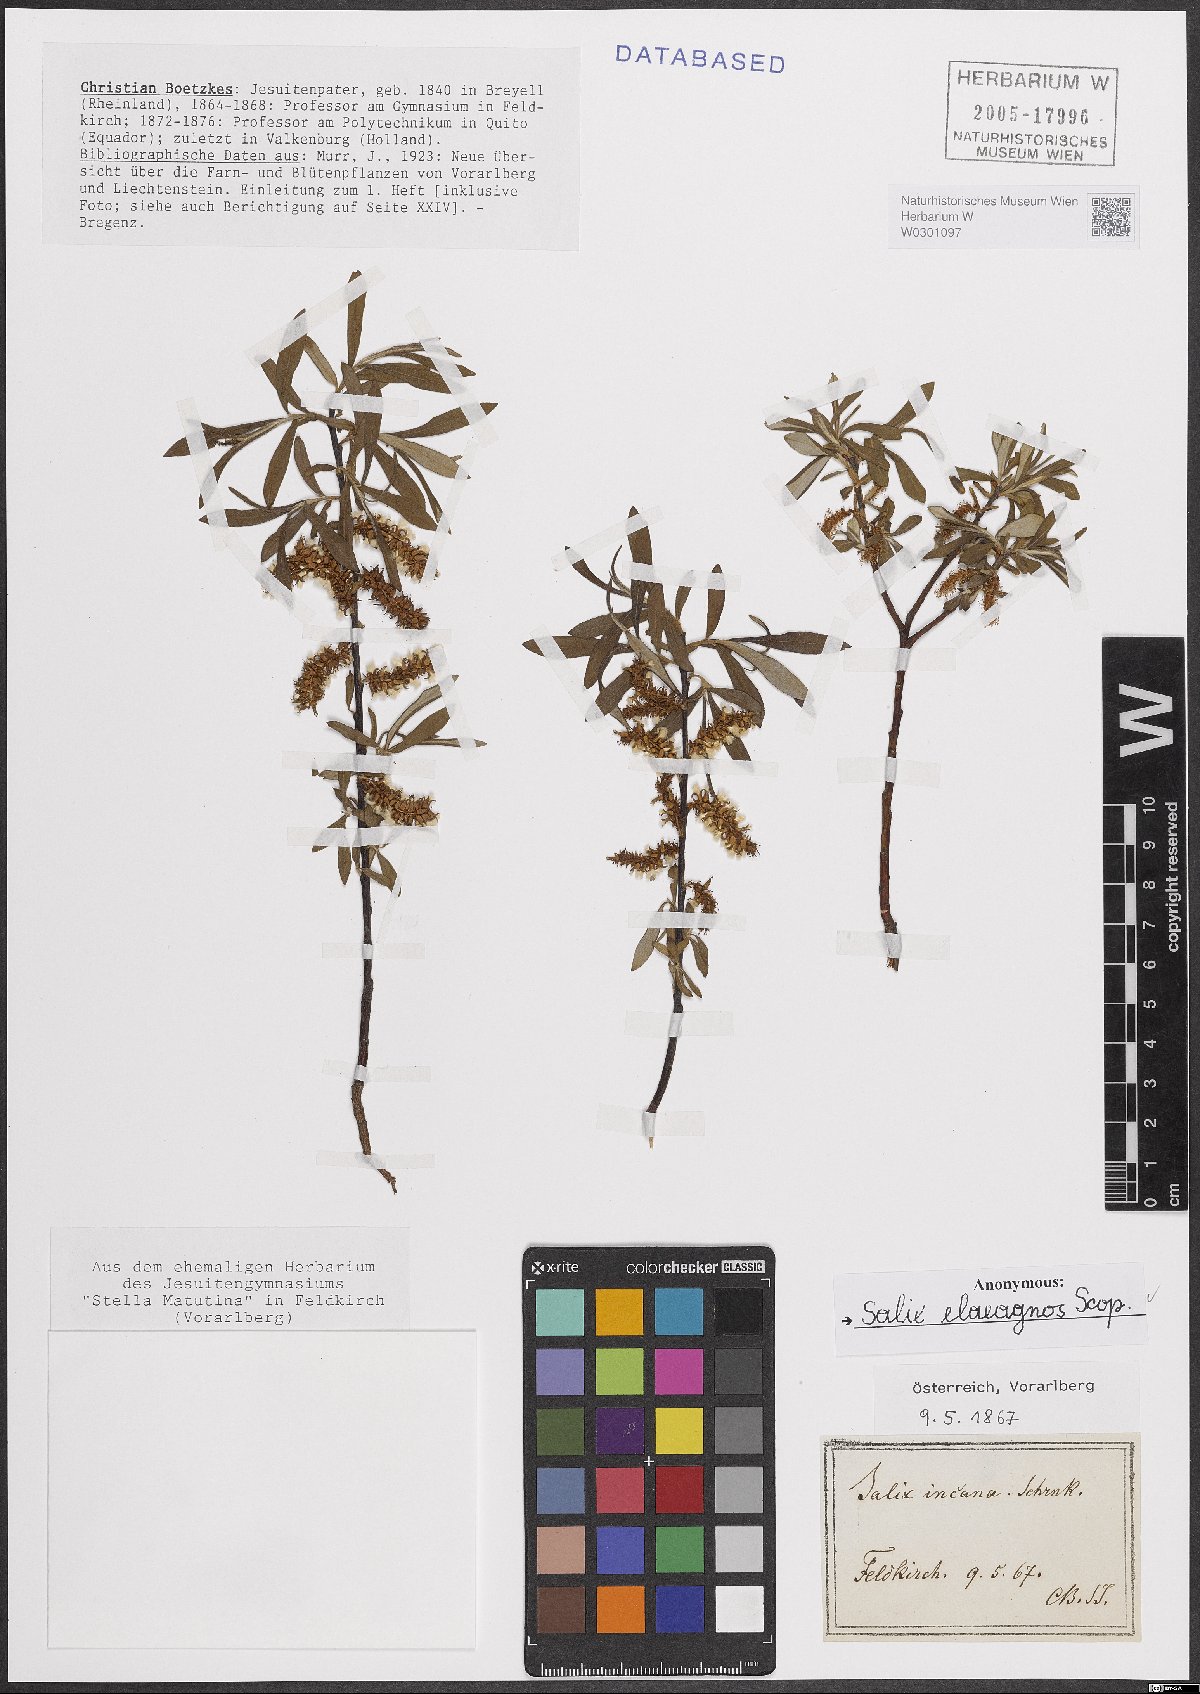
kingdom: Plantae
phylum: Tracheophyta
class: Magnoliopsida
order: Malpighiales
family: Salicaceae
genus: Salix
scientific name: Salix eleagnos
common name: Elaeagnus willow
